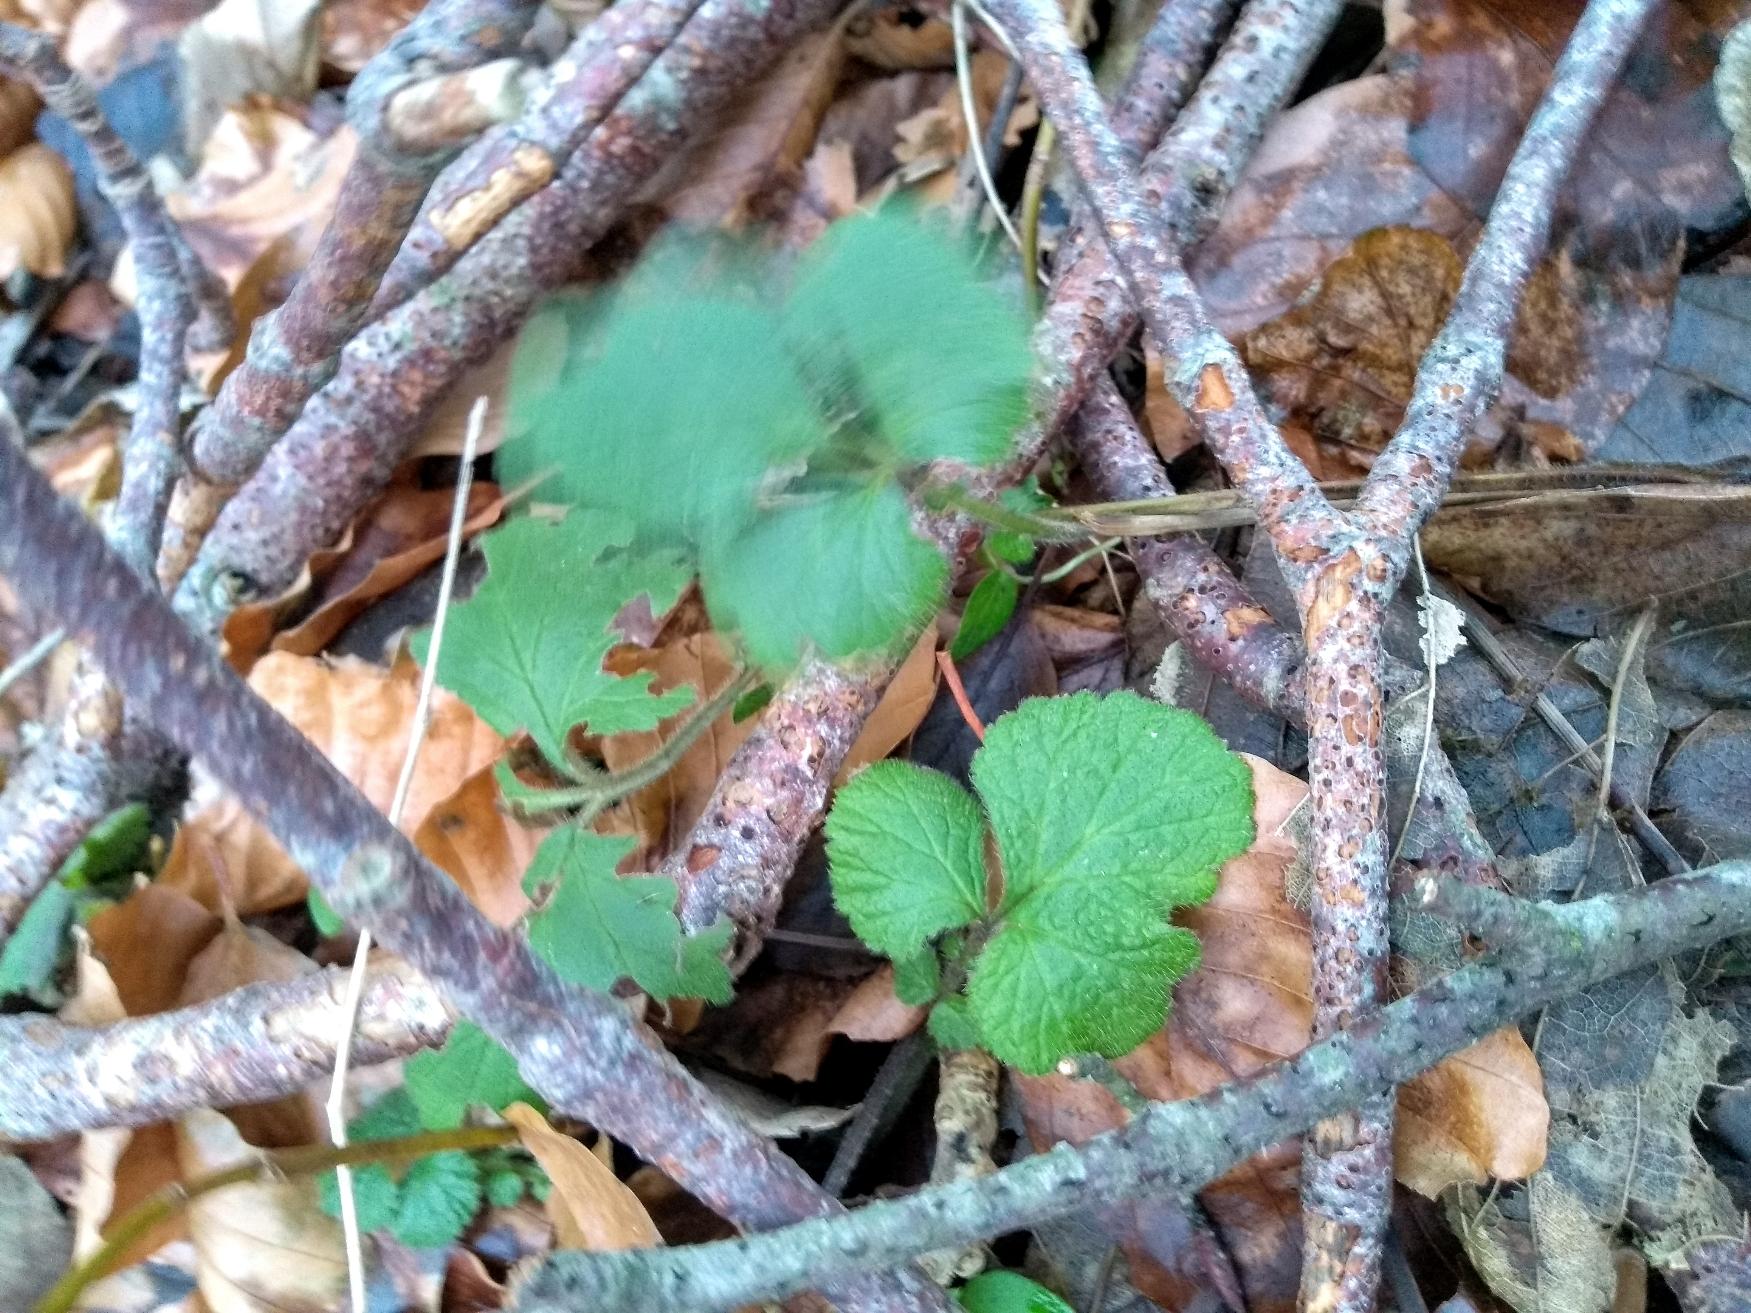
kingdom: Plantae
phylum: Tracheophyta
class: Magnoliopsida
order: Rosales
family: Rosaceae
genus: Geum
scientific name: Geum urbanum
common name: Feber-nellikerod
